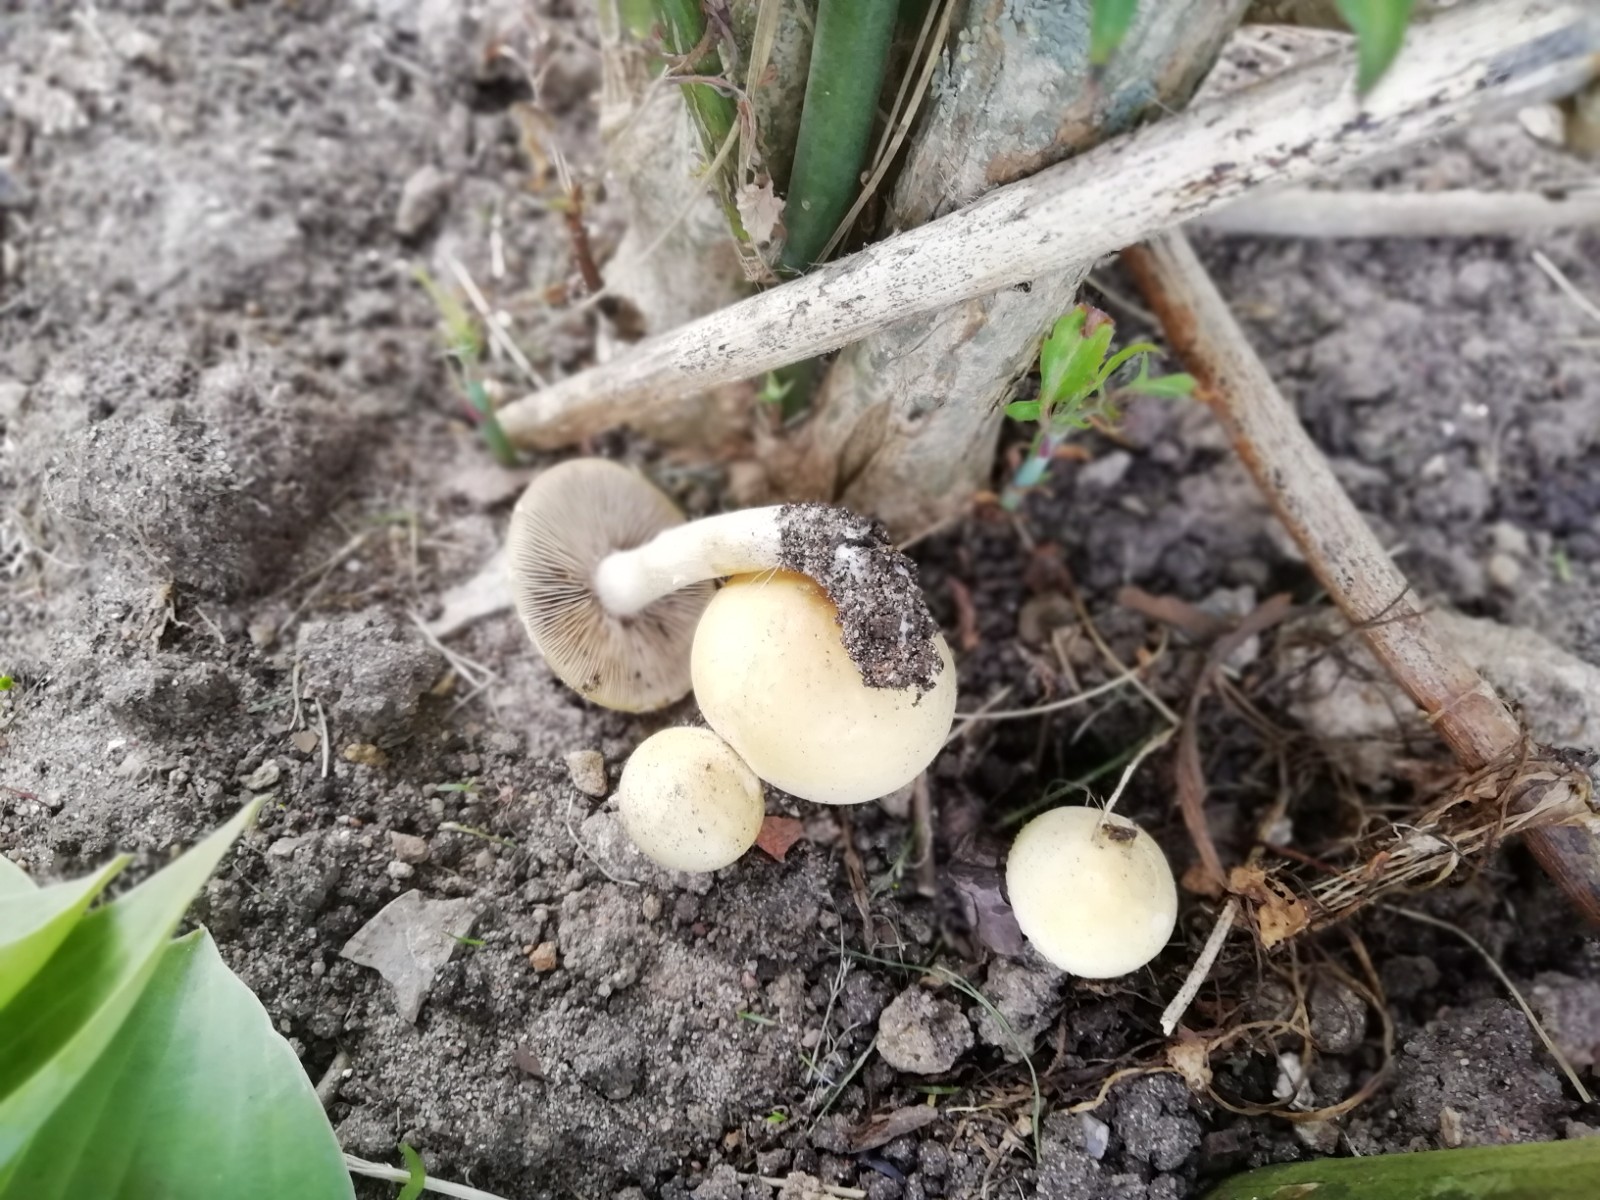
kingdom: Fungi
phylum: Basidiomycota
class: Agaricomycetes
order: Agaricales
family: Strophariaceae
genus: Agrocybe
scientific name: Agrocybe
